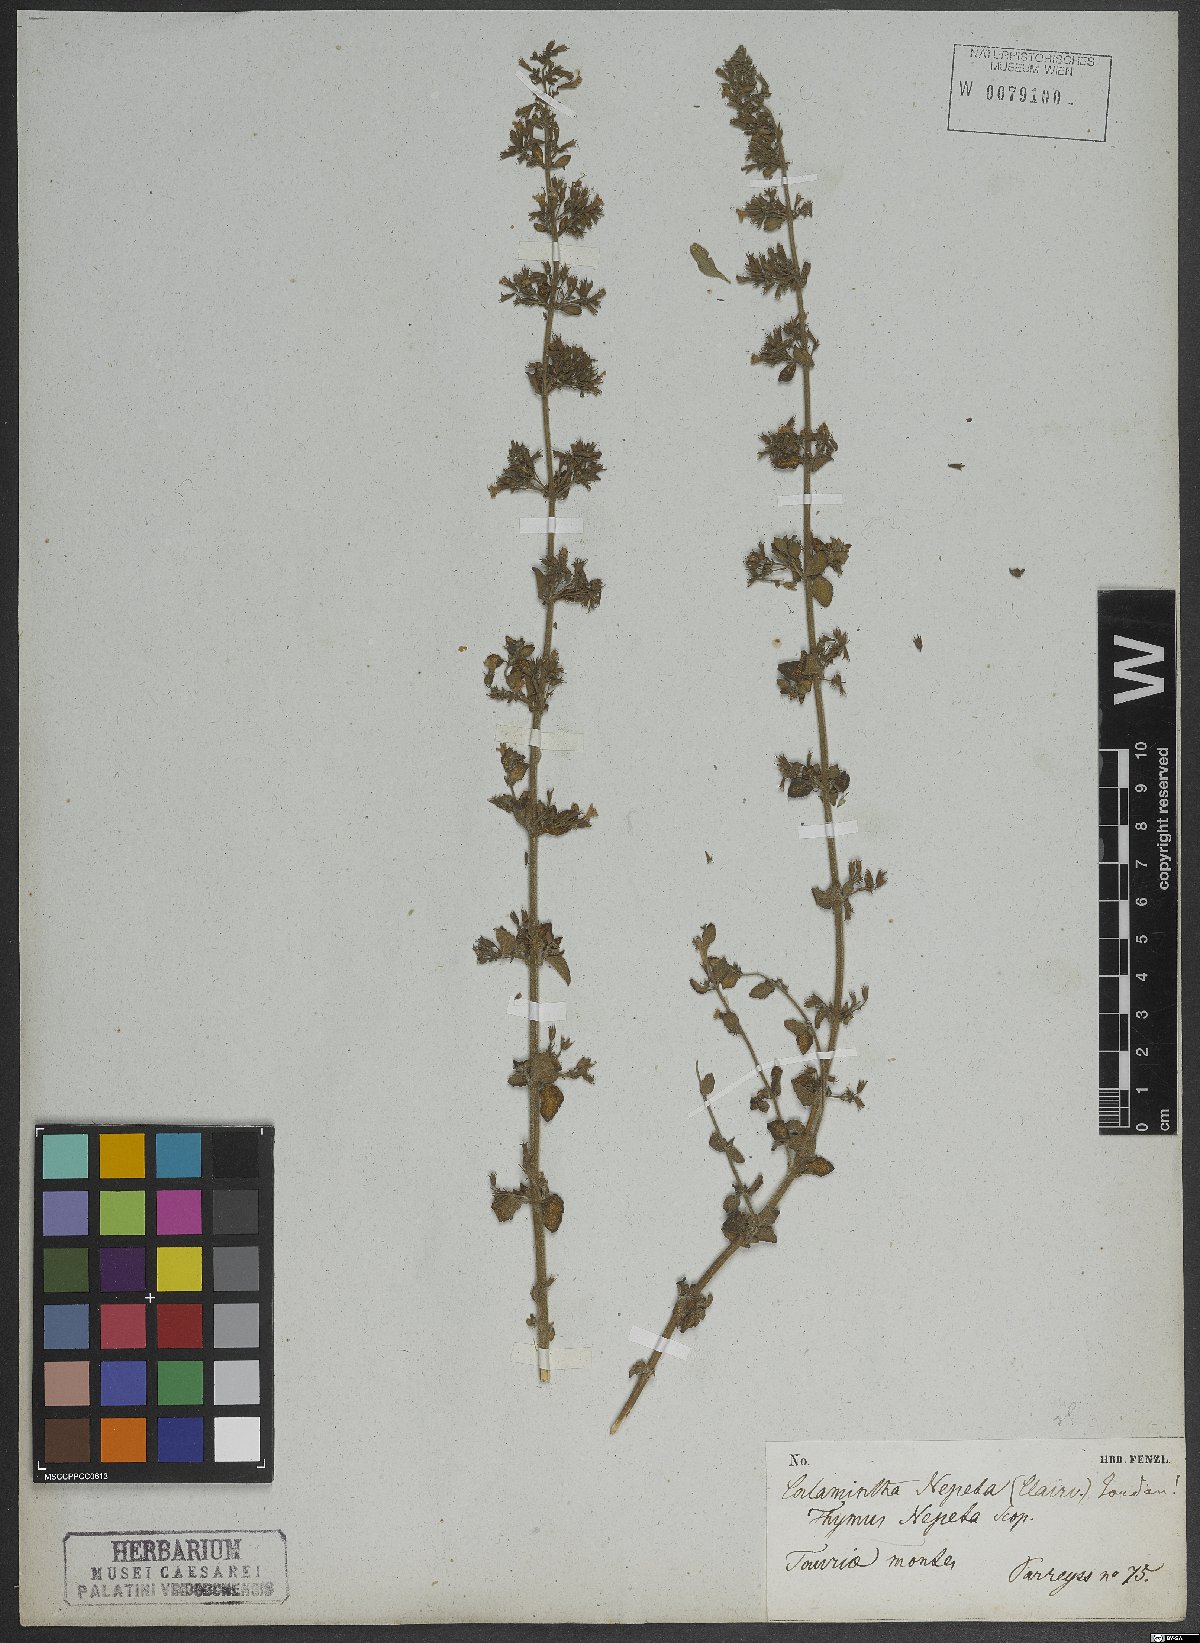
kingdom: Plantae
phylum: Tracheophyta
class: Magnoliopsida
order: Lamiales
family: Lamiaceae
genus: Clinopodium
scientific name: Clinopodium nepeta
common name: Lesser calamint
